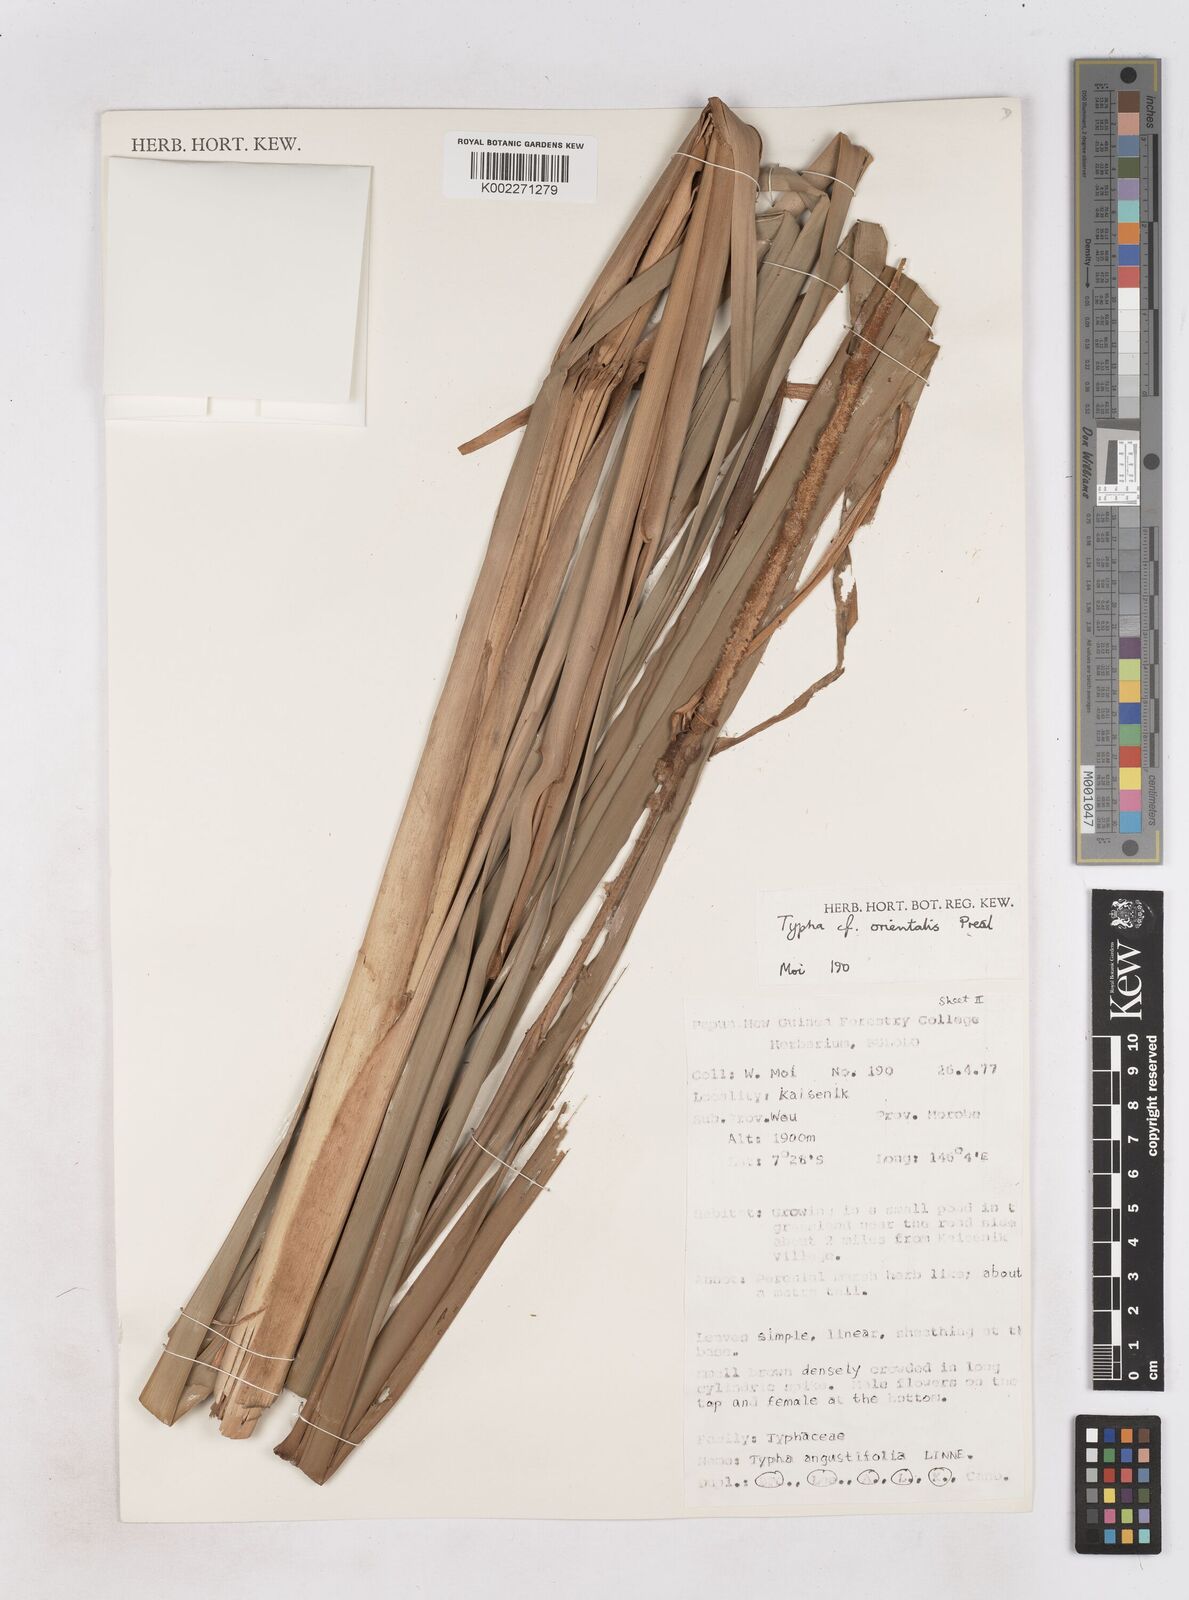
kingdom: Plantae
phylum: Tracheophyta
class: Liliopsida
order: Poales
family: Typhaceae
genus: Typha
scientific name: Typha orientalis
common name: Bullrush
